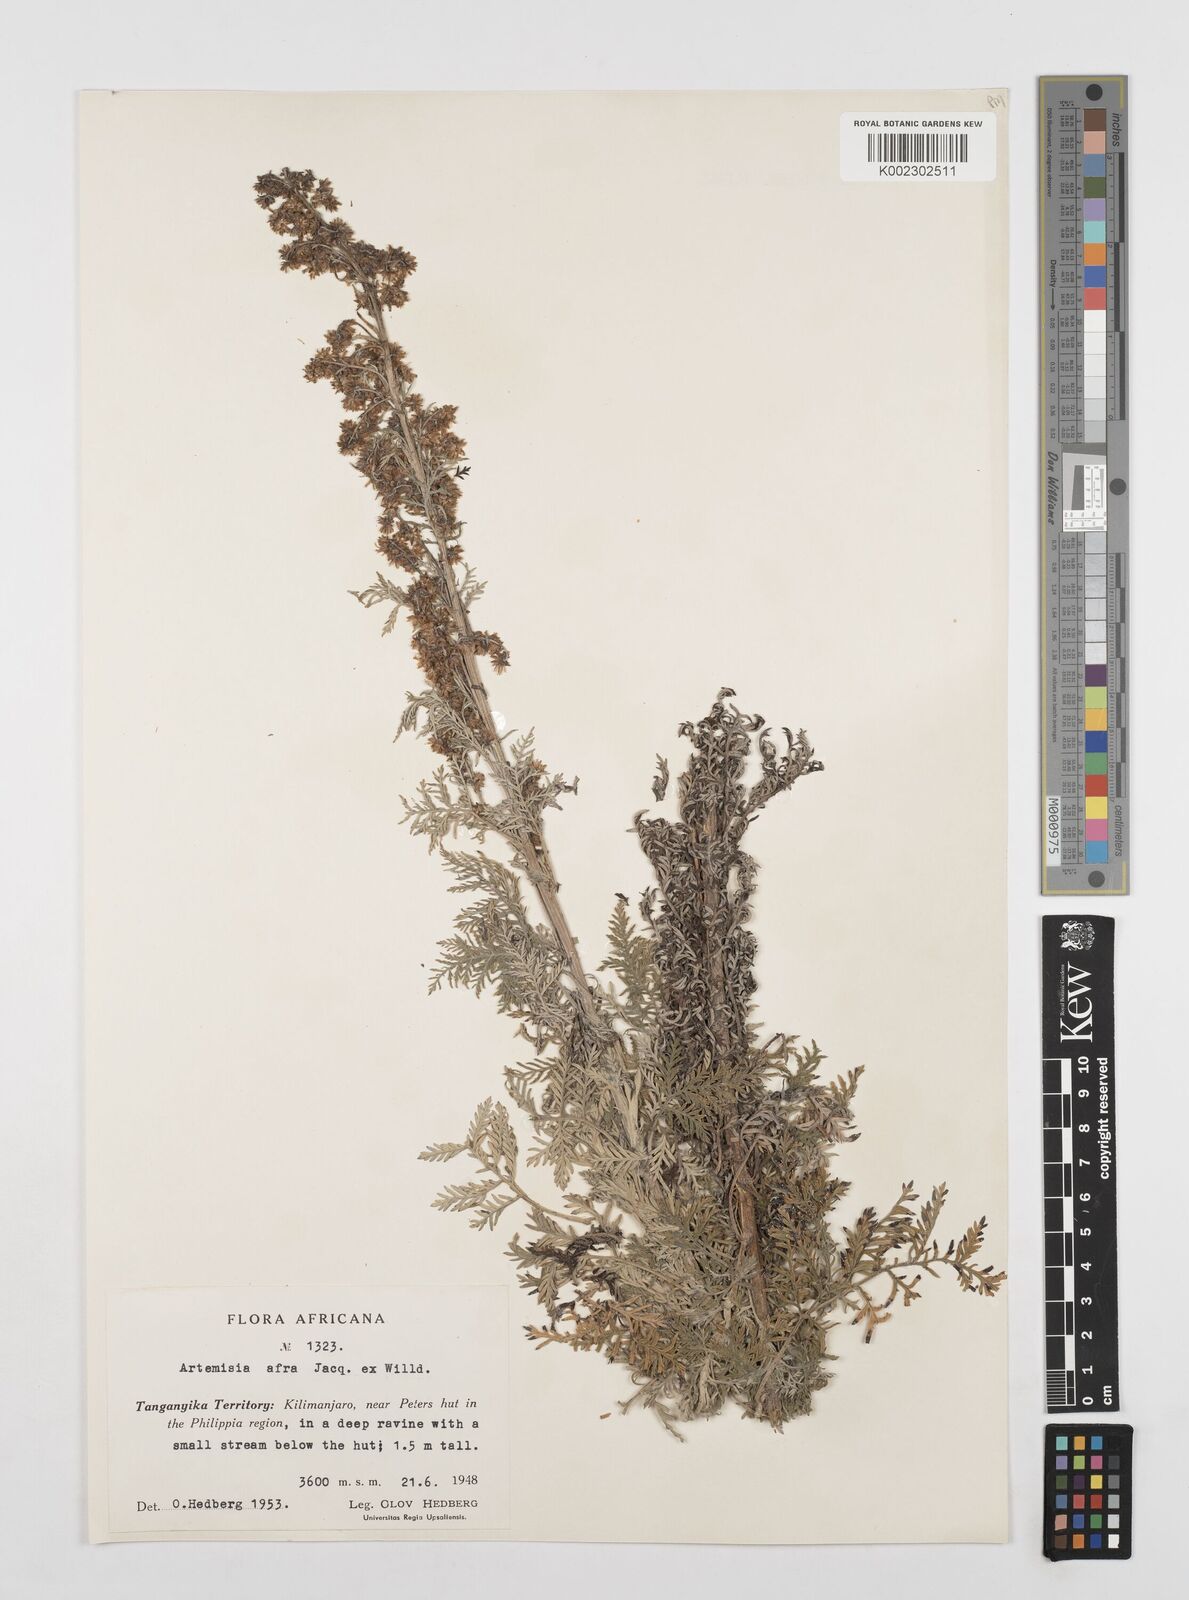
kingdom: Plantae
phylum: Tracheophyta
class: Magnoliopsida
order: Asterales
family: Asteraceae
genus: Artemisia
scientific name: Artemisia afra
